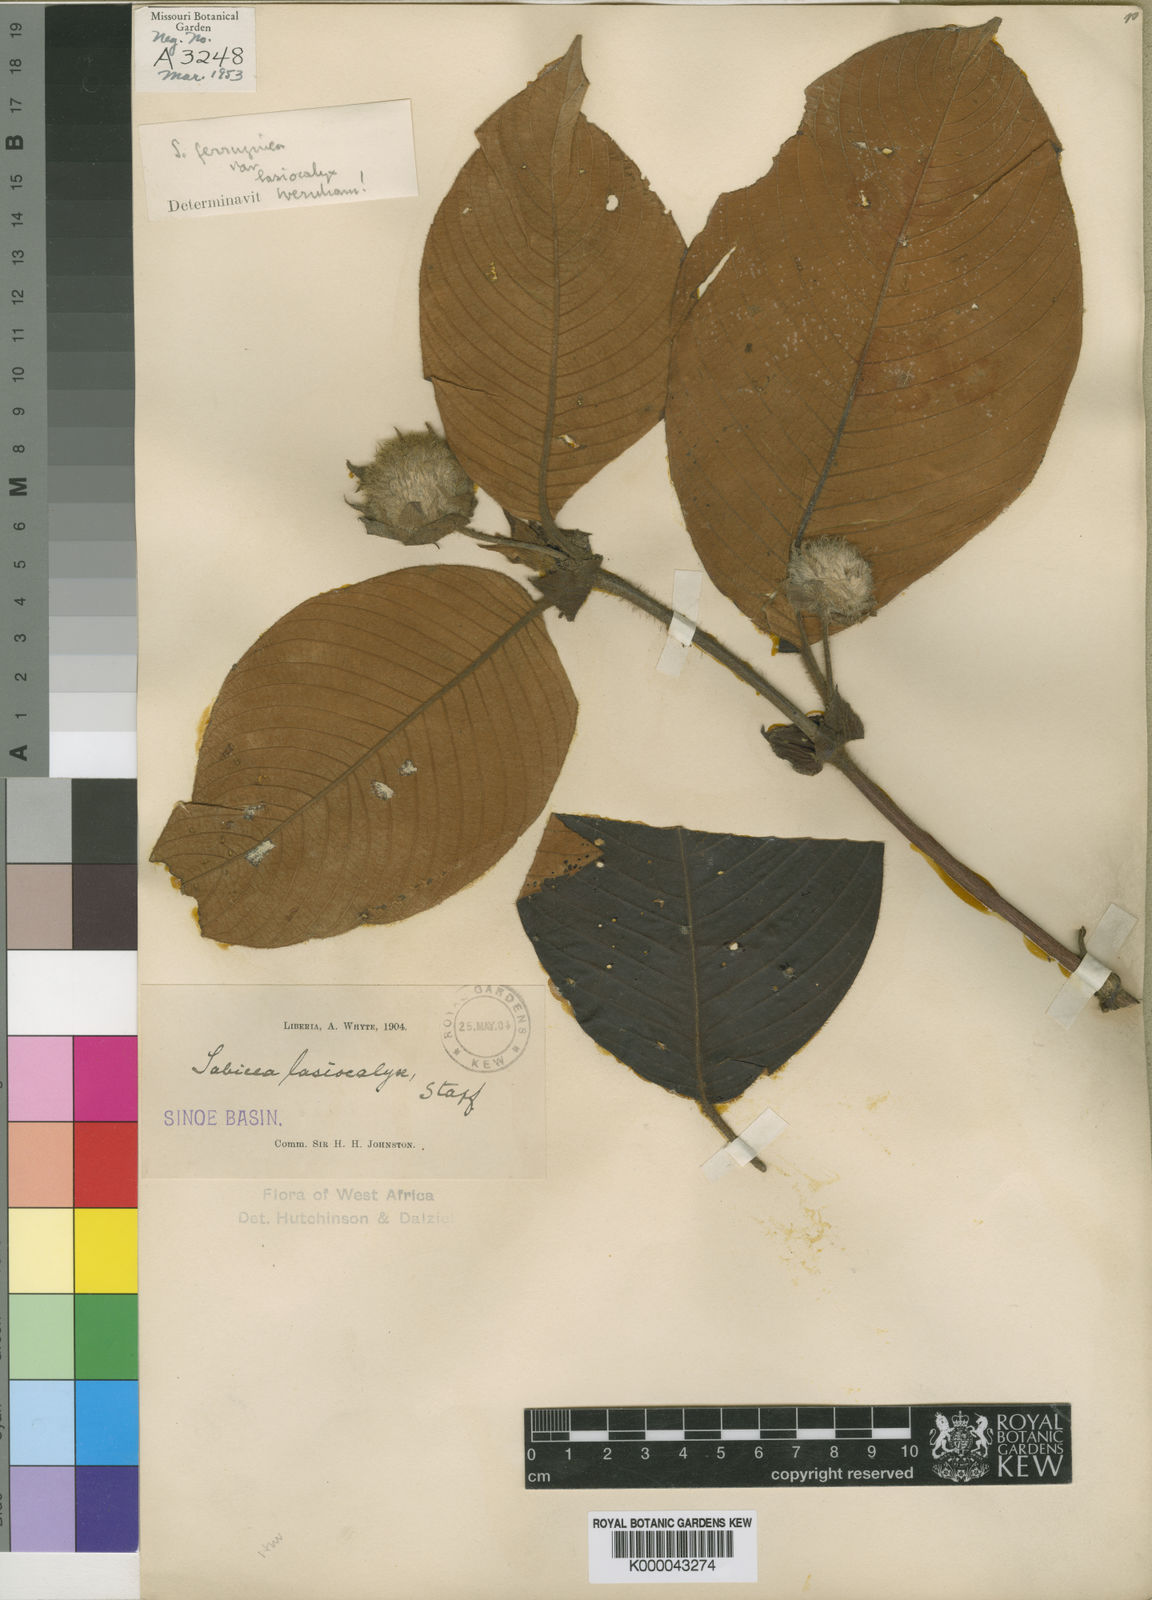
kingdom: Plantae
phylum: Tracheophyta
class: Magnoliopsida
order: Gentianales
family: Rubiaceae
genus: Sabicea
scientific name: Sabicea ferruginea
